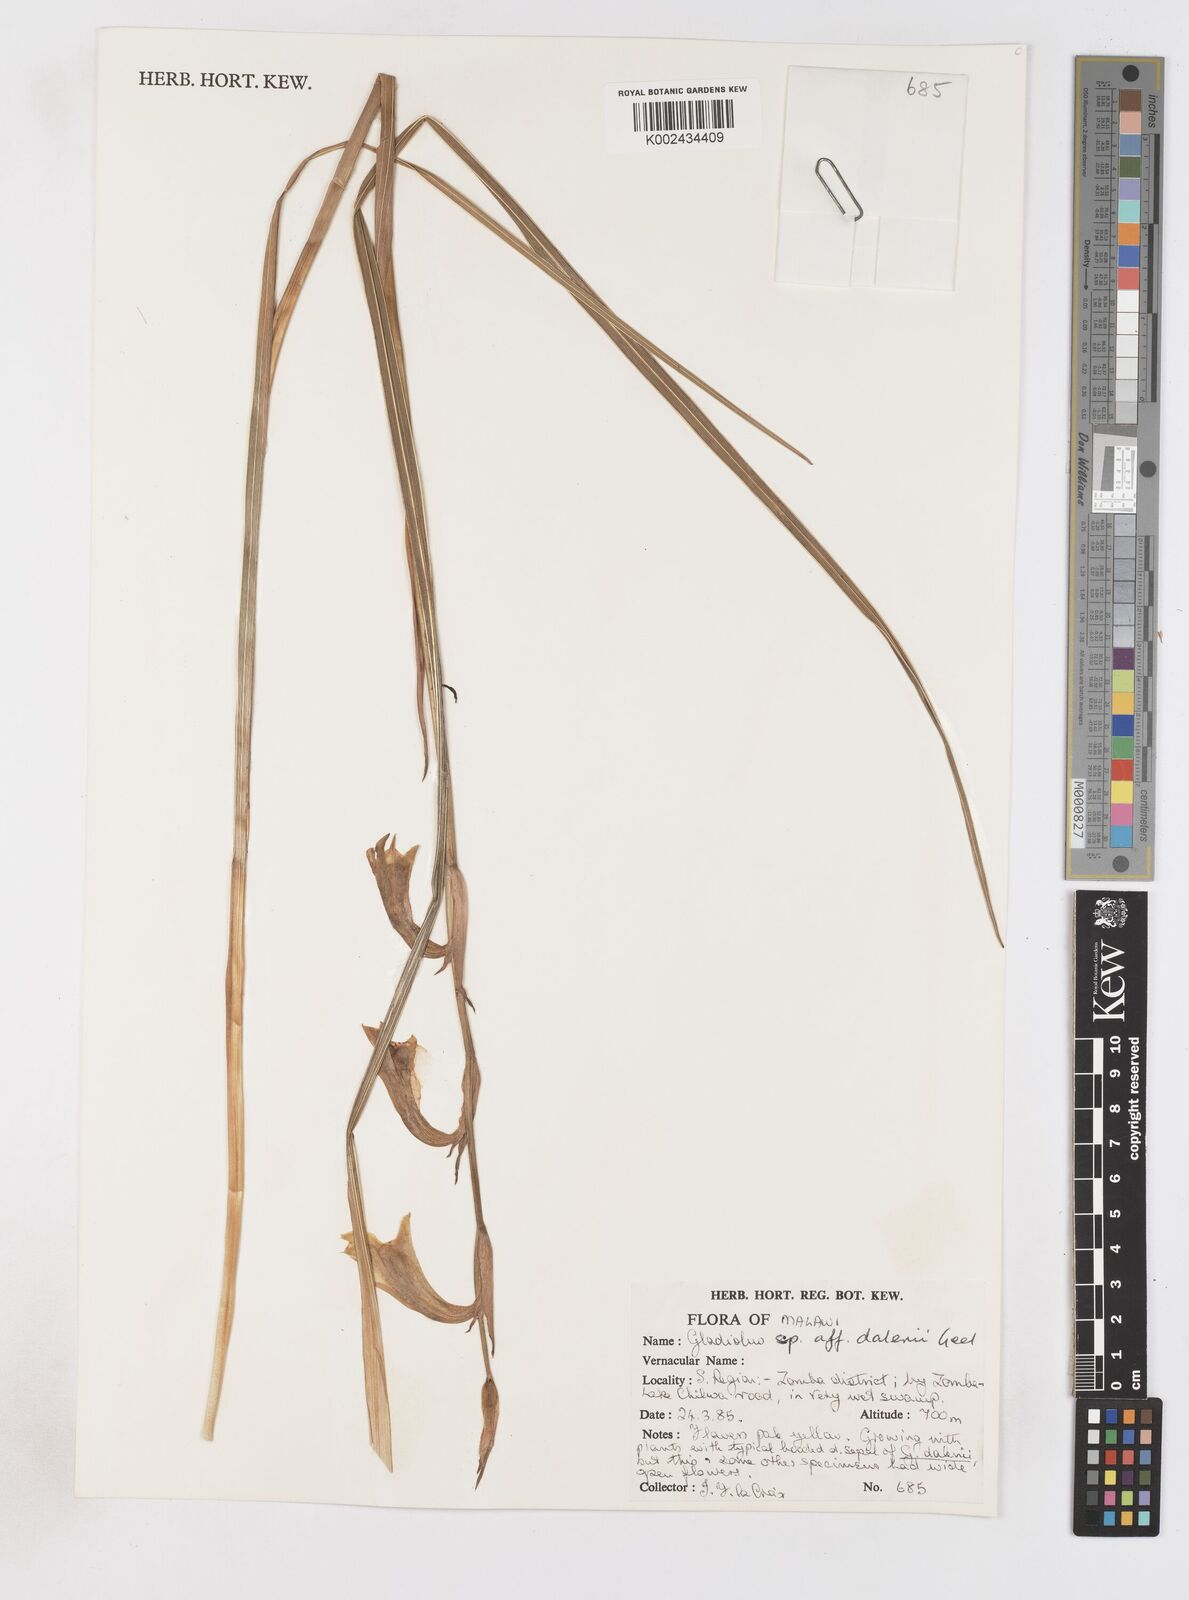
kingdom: Plantae
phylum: Tracheophyta
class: Liliopsida
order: Asparagales
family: Iridaceae
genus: Gladiolus
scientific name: Gladiolus dalenii
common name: Cornflag
